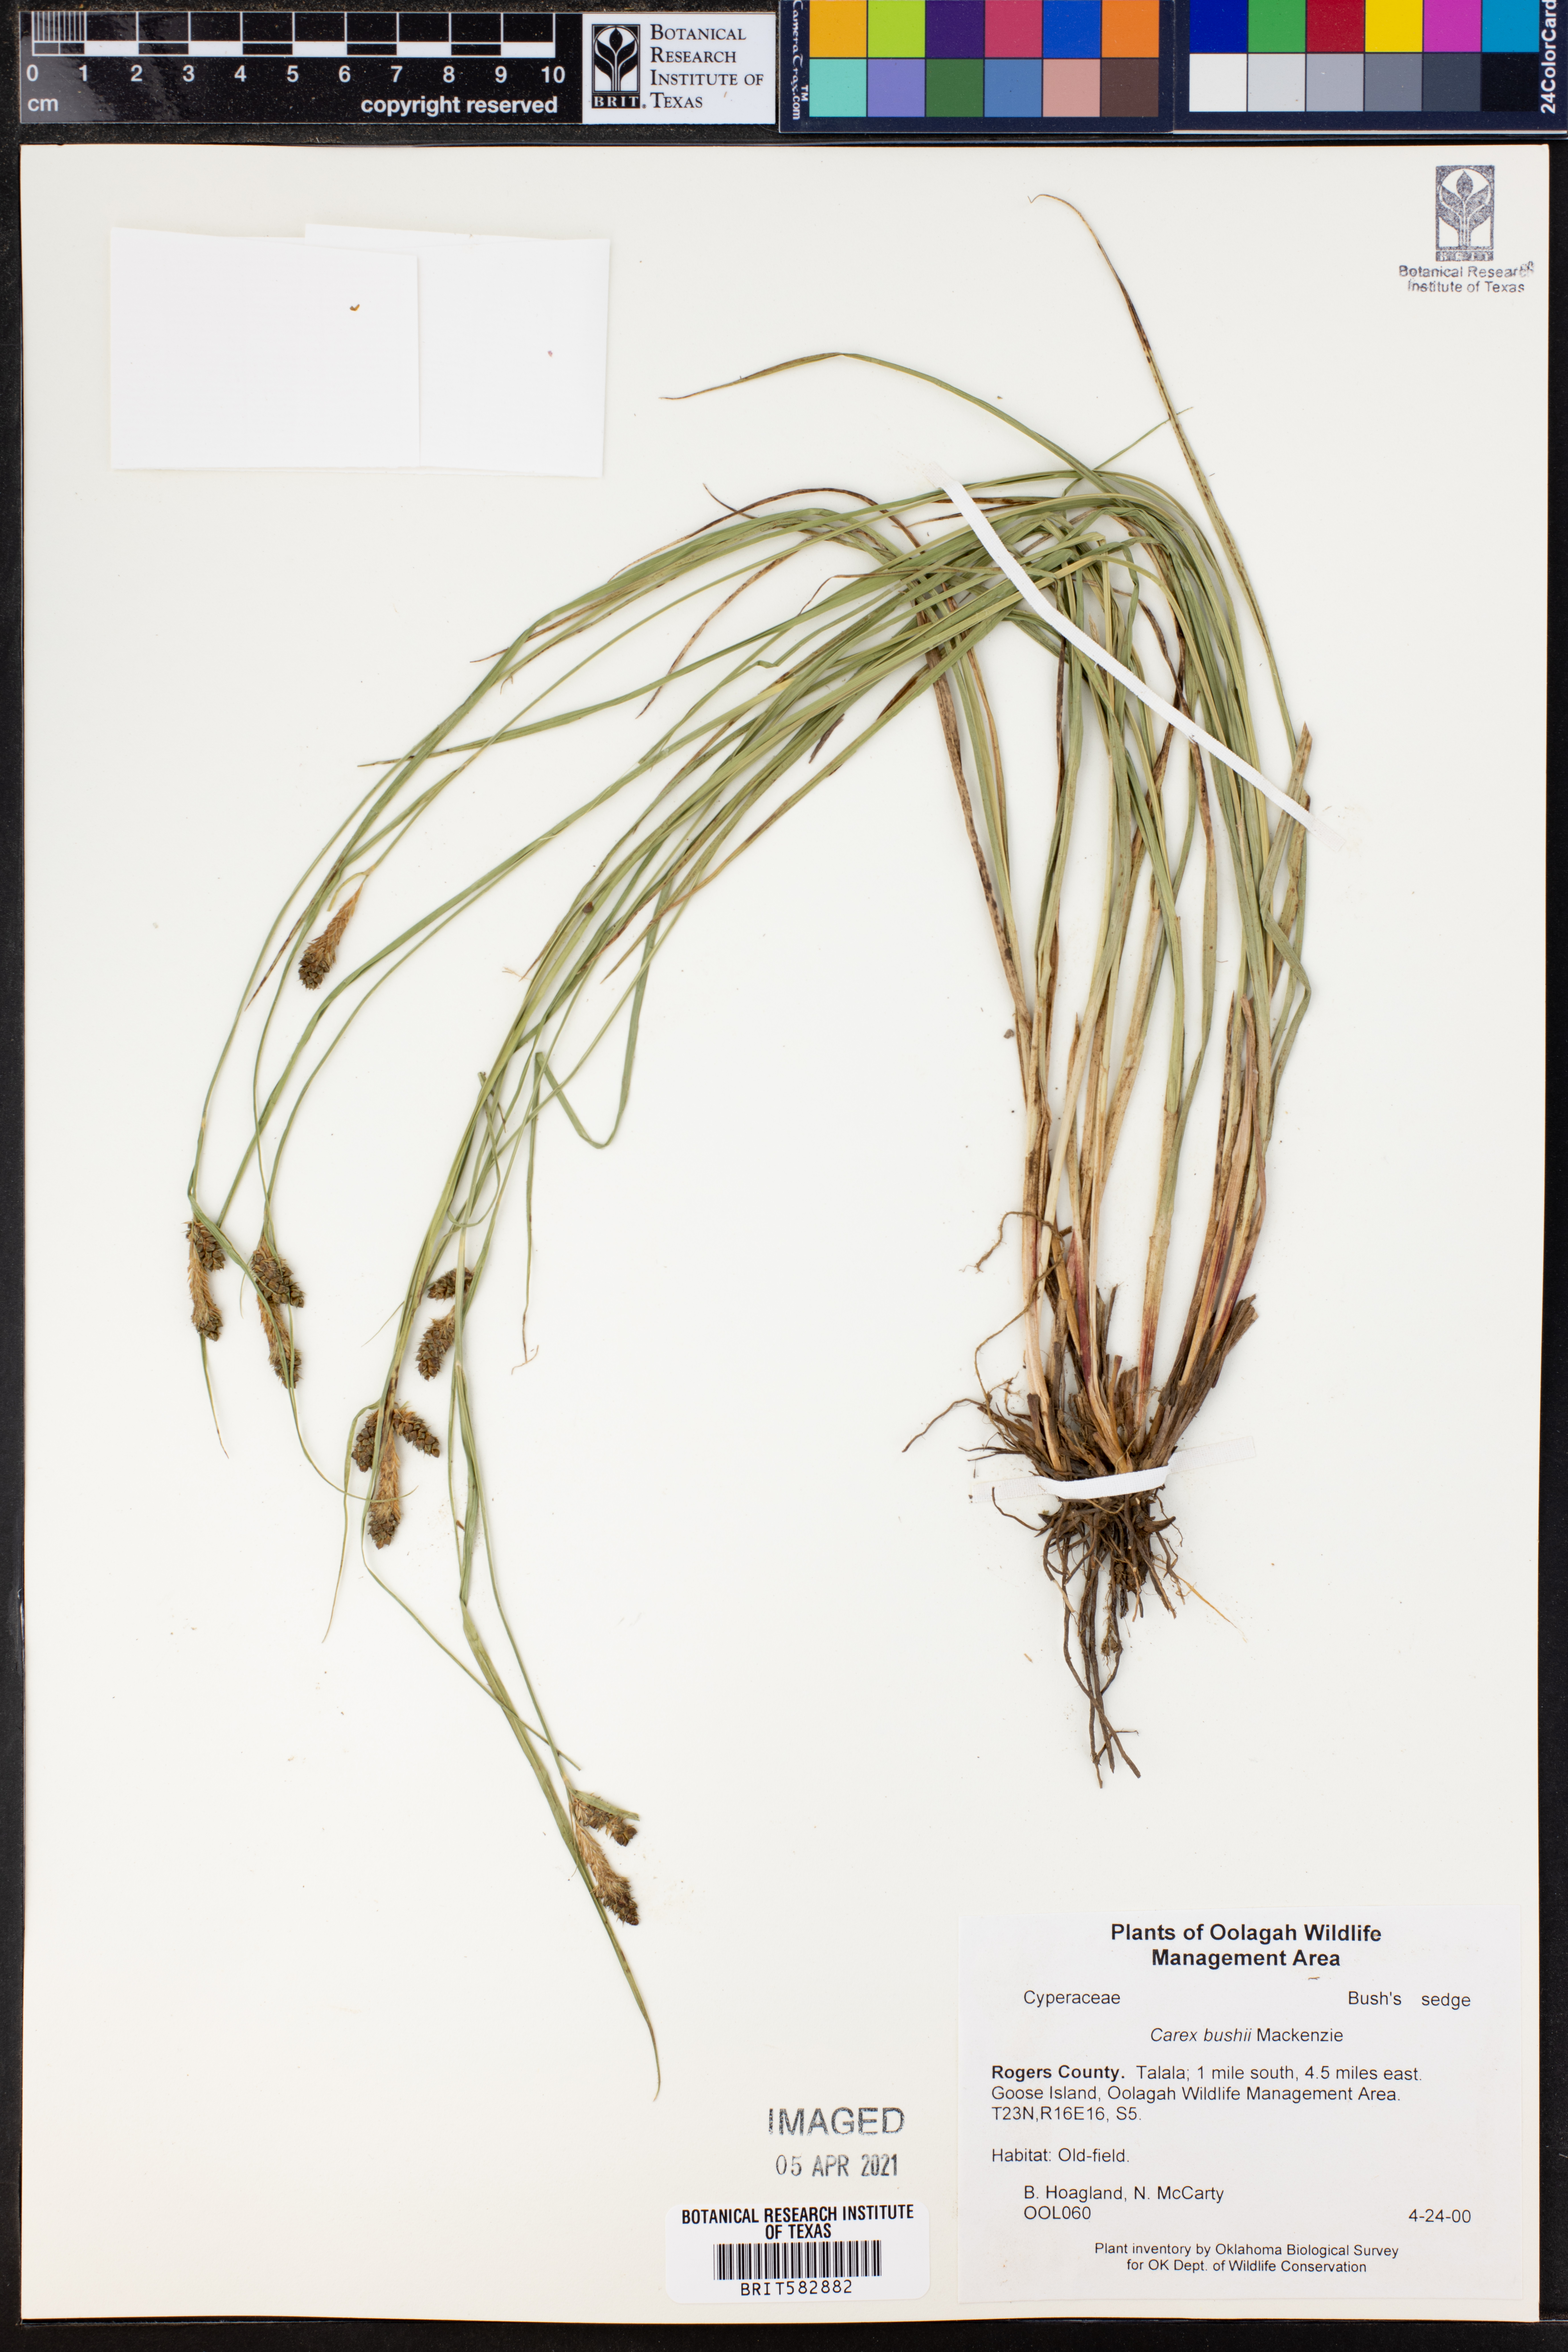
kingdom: Plantae
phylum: Tracheophyta
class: Liliopsida
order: Poales
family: Cyperaceae
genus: Carex
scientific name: Carex bushii
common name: Bush's sedge
